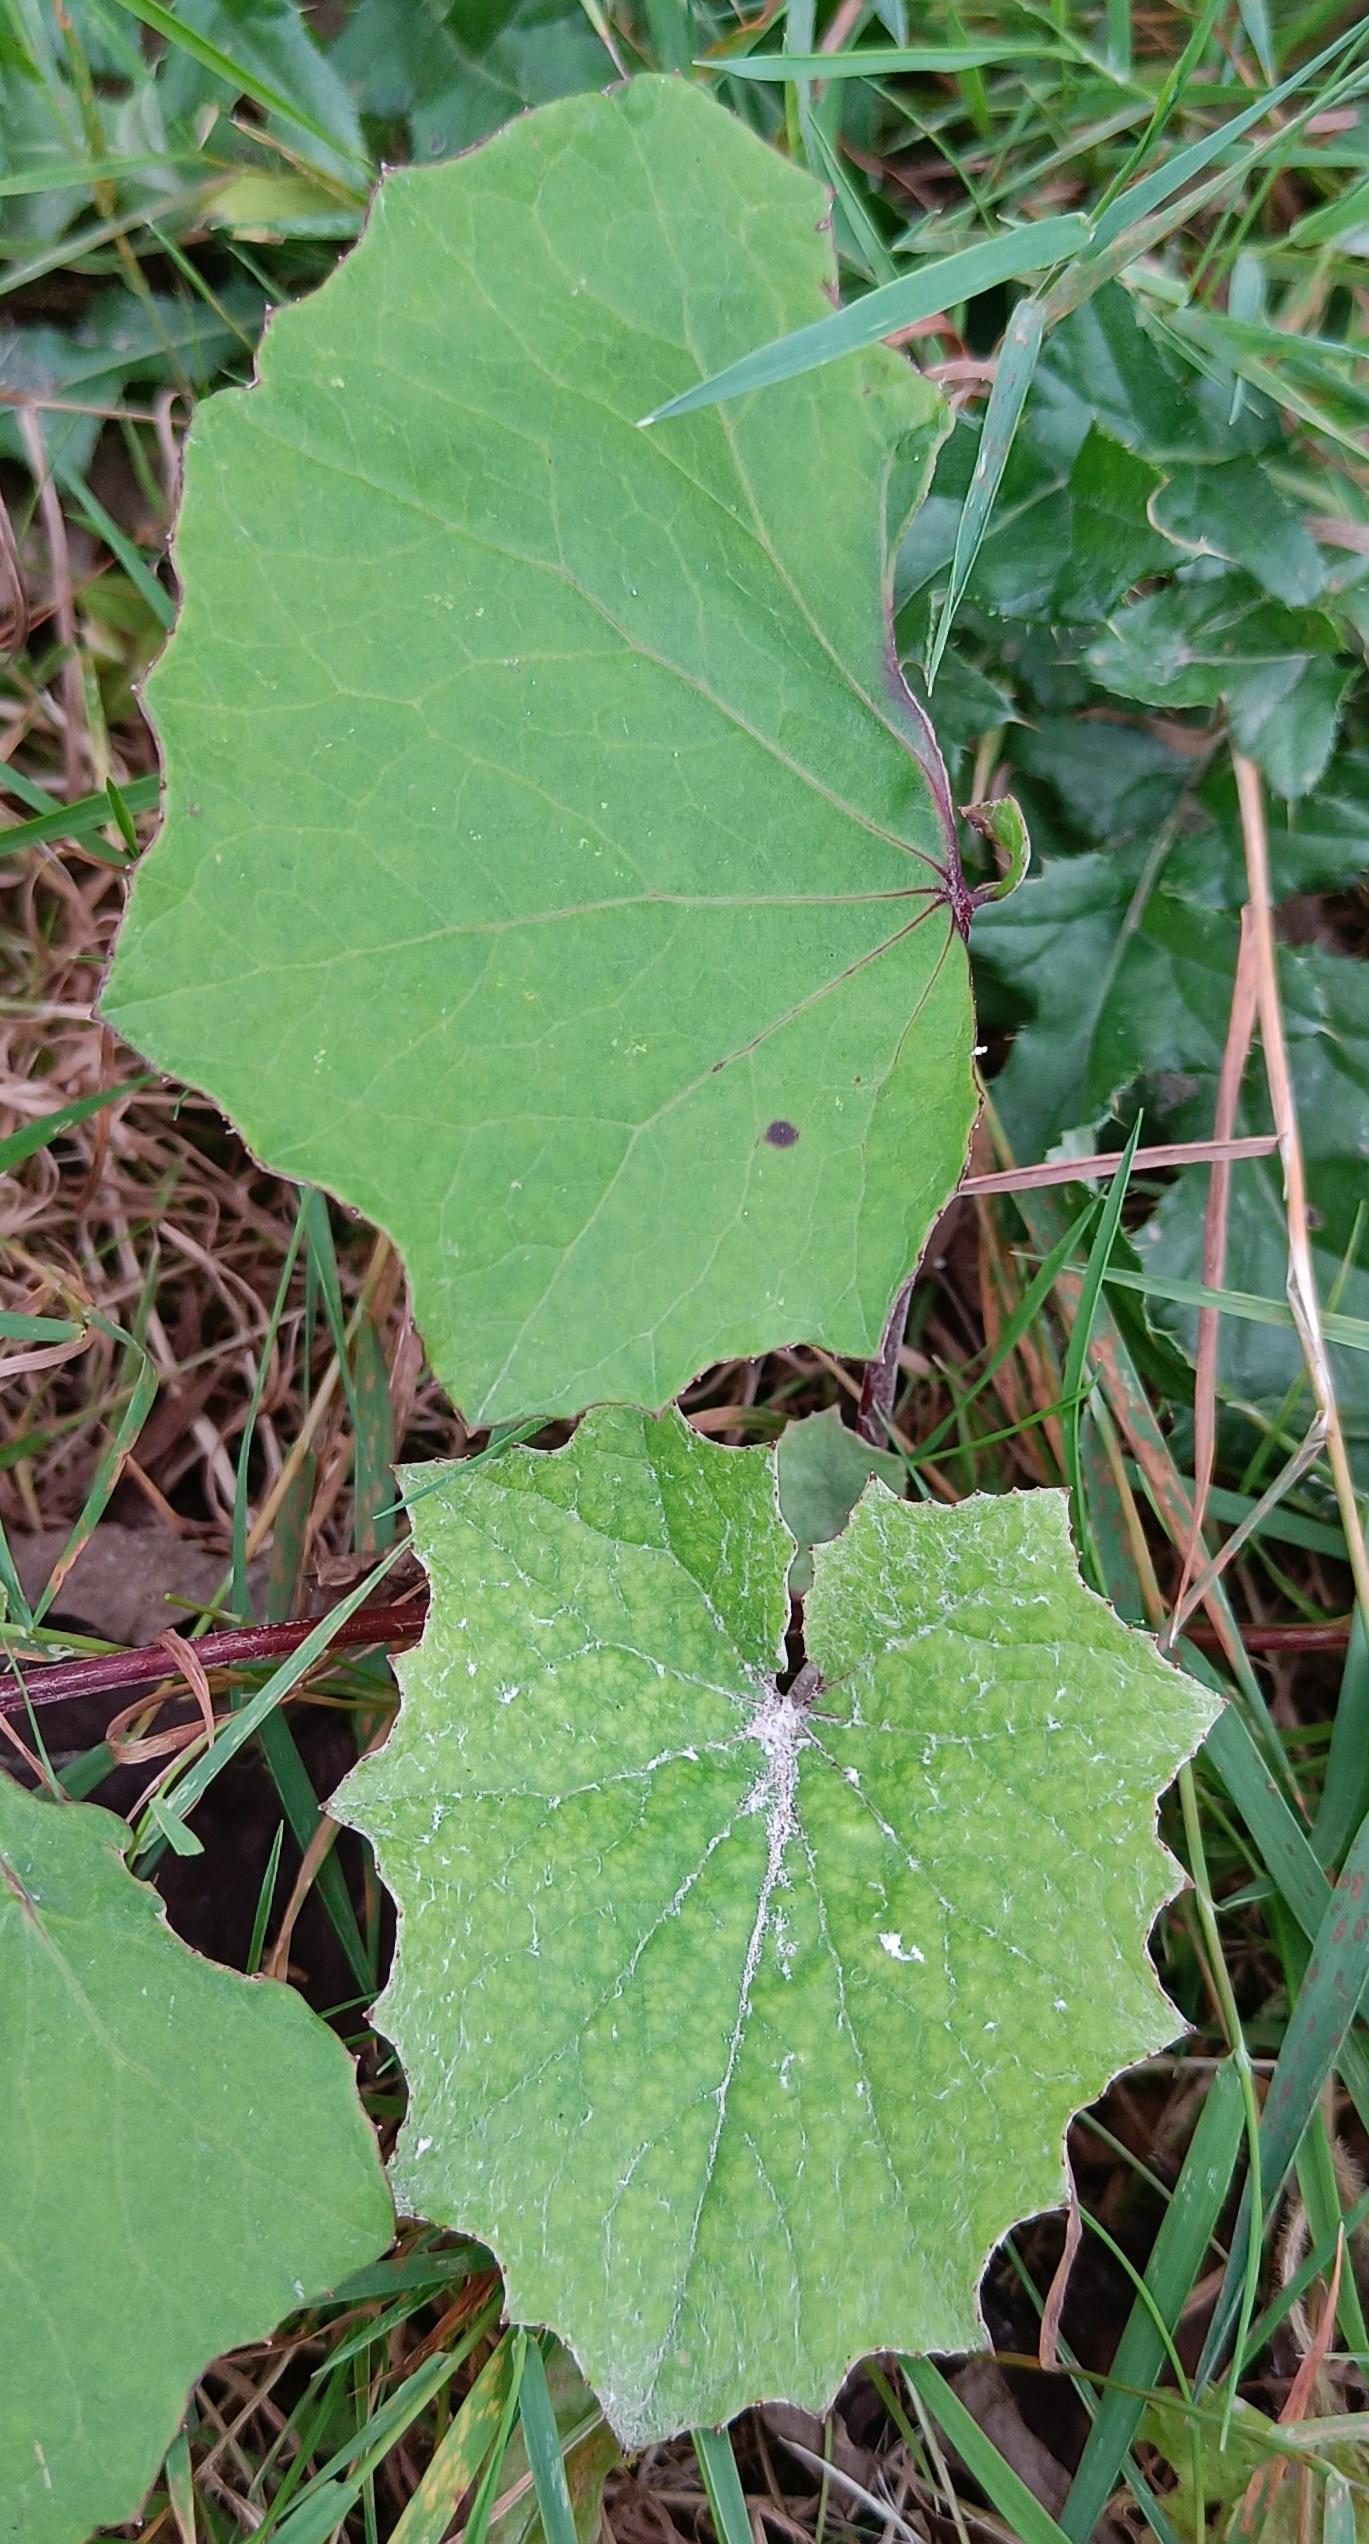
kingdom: Plantae
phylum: Tracheophyta
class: Magnoliopsida
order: Asterales
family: Asteraceae
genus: Tussilago
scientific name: Tussilago farfara
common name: Følfod
